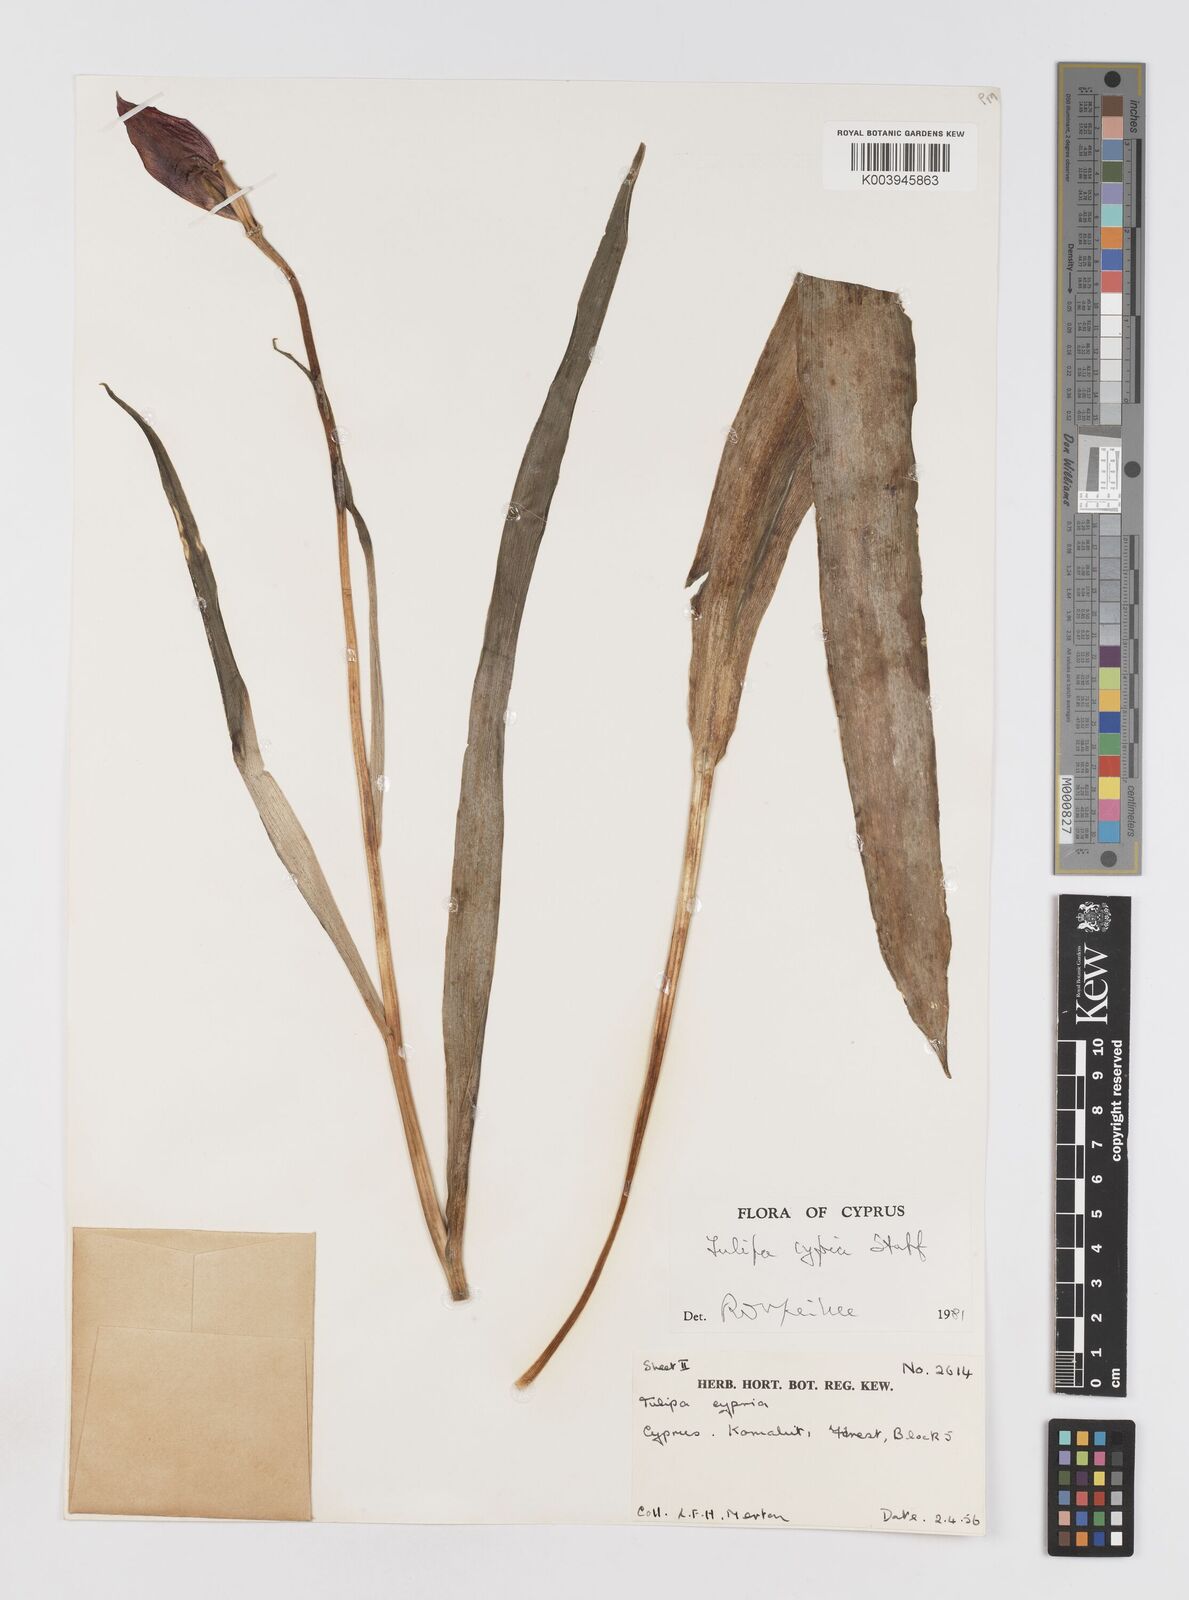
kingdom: Plantae
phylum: Tracheophyta
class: Liliopsida
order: Liliales
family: Liliaceae
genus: Tulipa
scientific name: Tulipa agenensis
